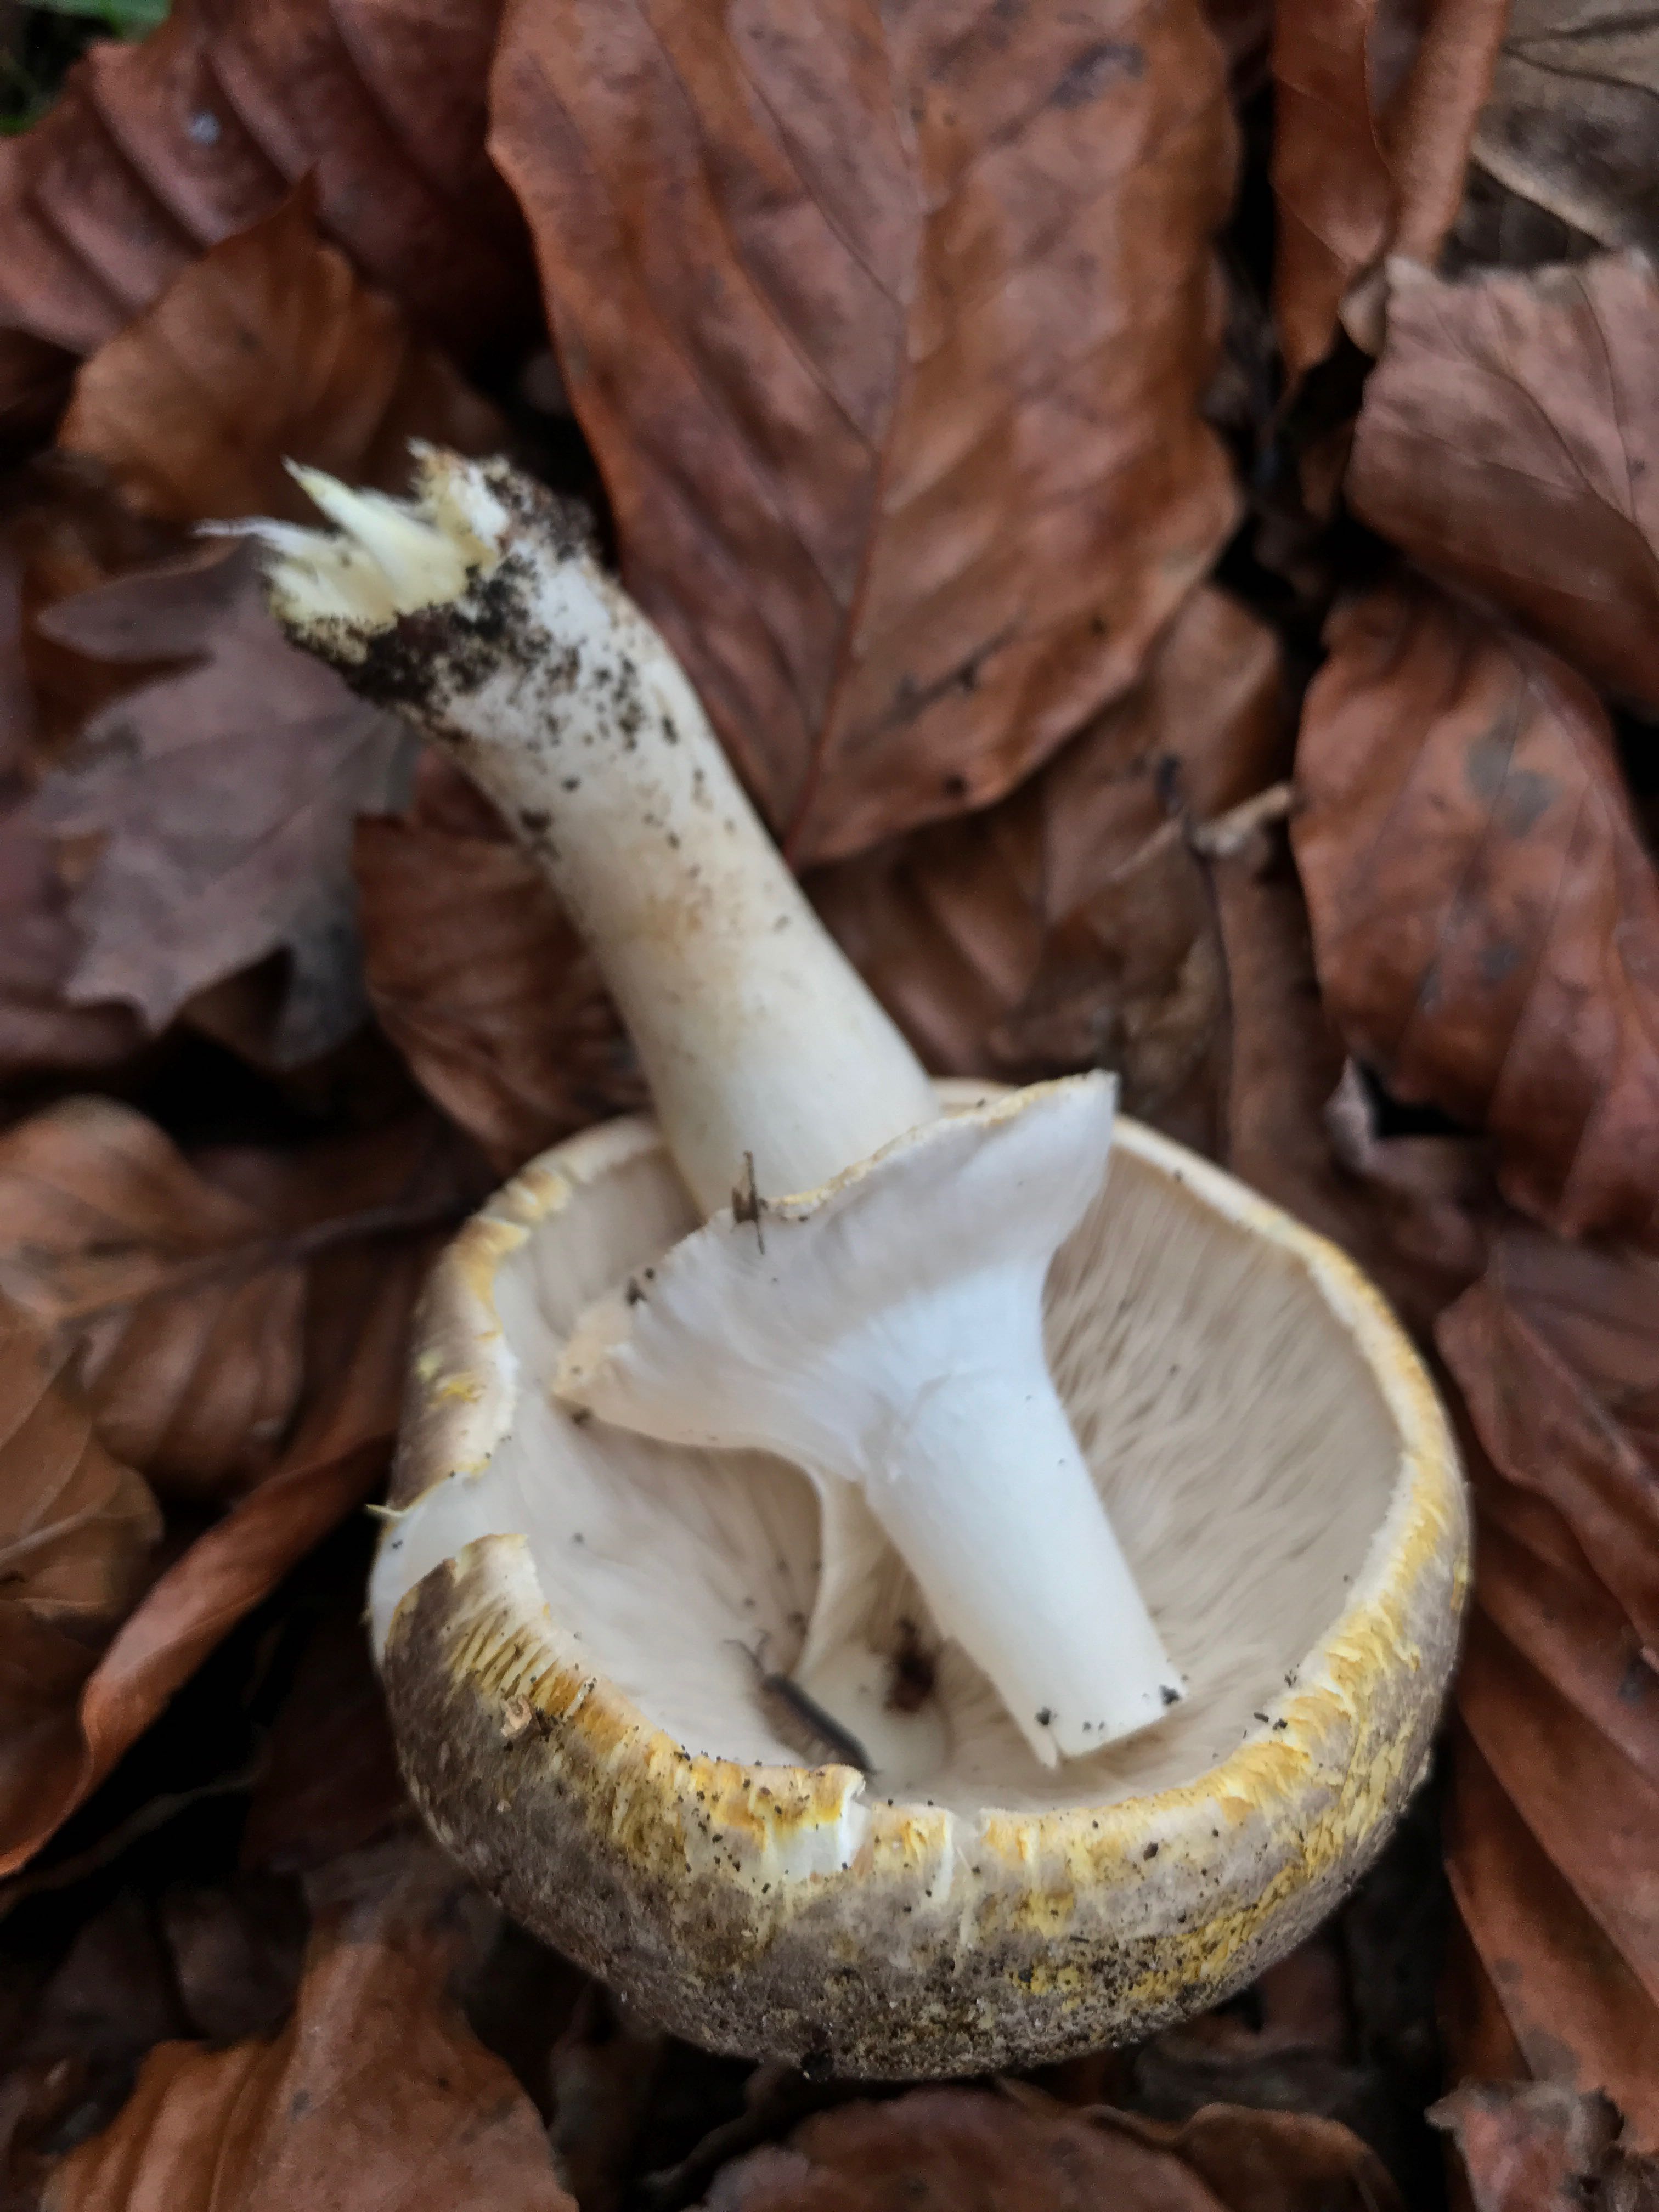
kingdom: Fungi
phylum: Basidiomycota
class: Agaricomycetes
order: Agaricales
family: Agaricaceae
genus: Agaricus
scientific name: Agaricus moelleri
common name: perlehøne-champignon
